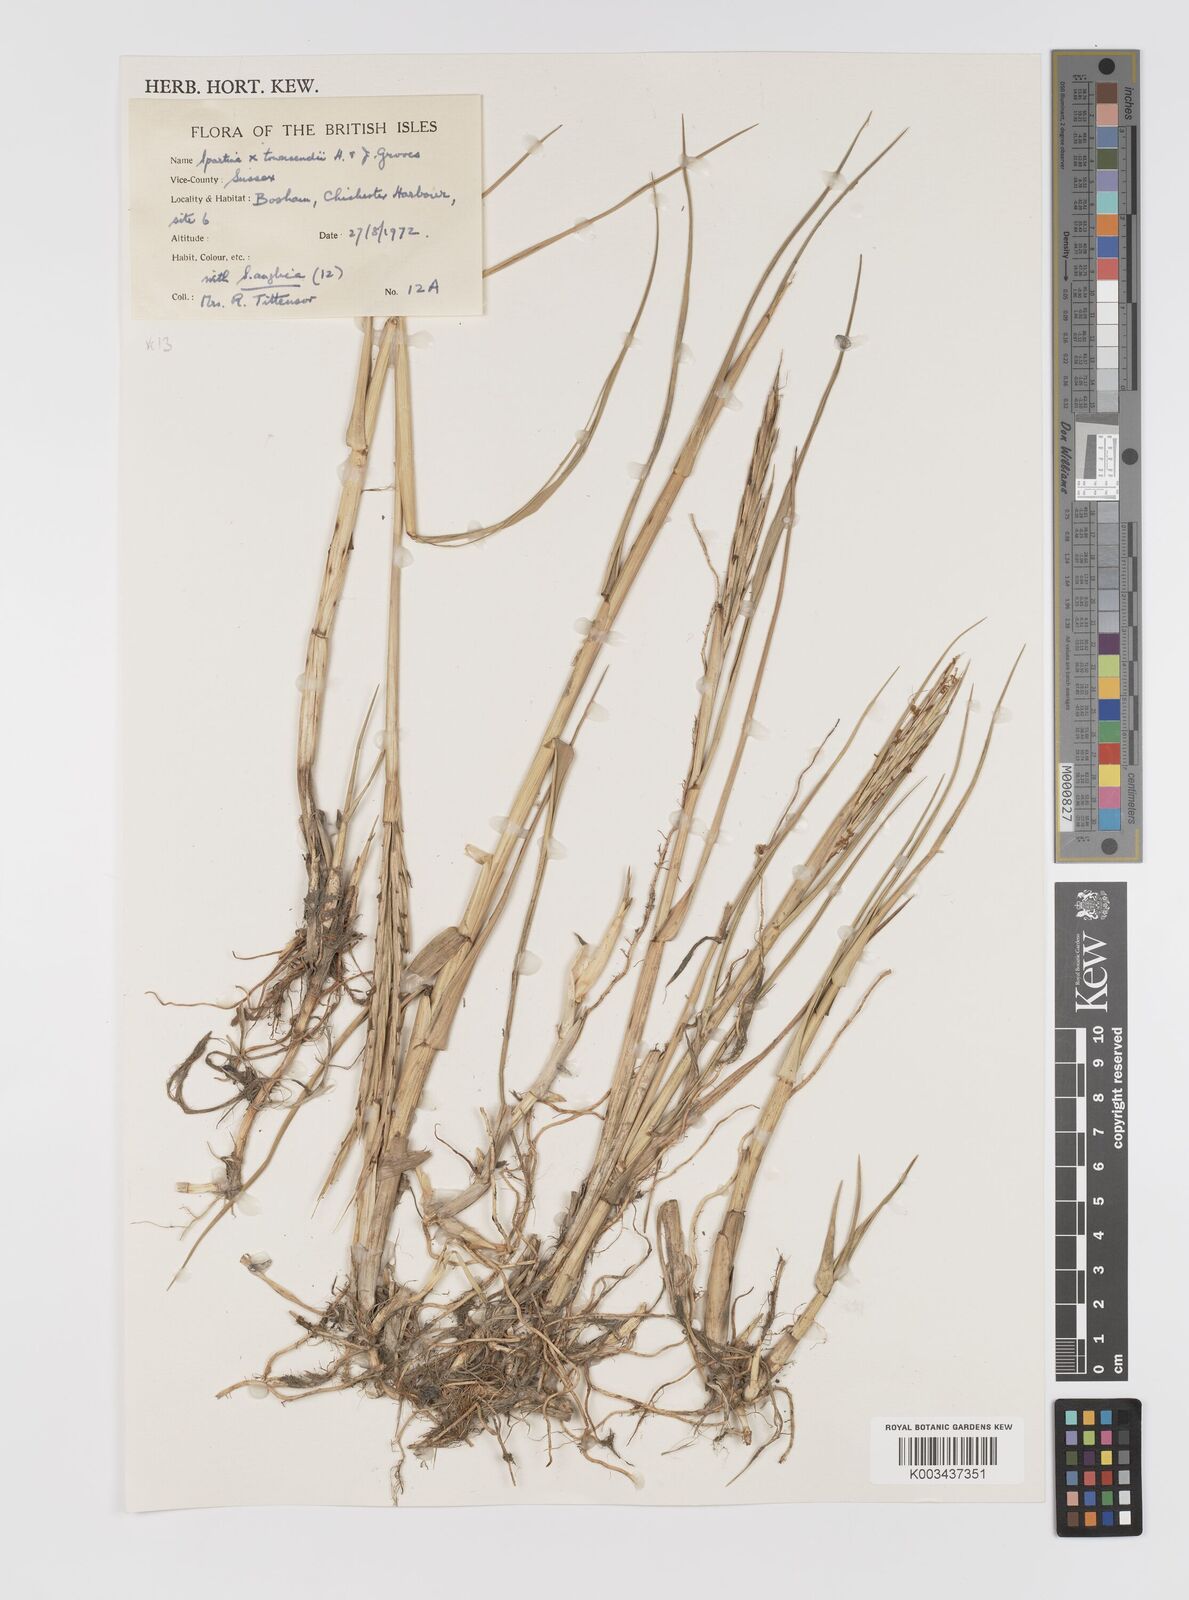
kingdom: Plantae
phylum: Tracheophyta
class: Liliopsida
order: Poales
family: Poaceae
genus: Sporobolus
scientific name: Sporobolus townsendii
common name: Townsend's cordgrass
